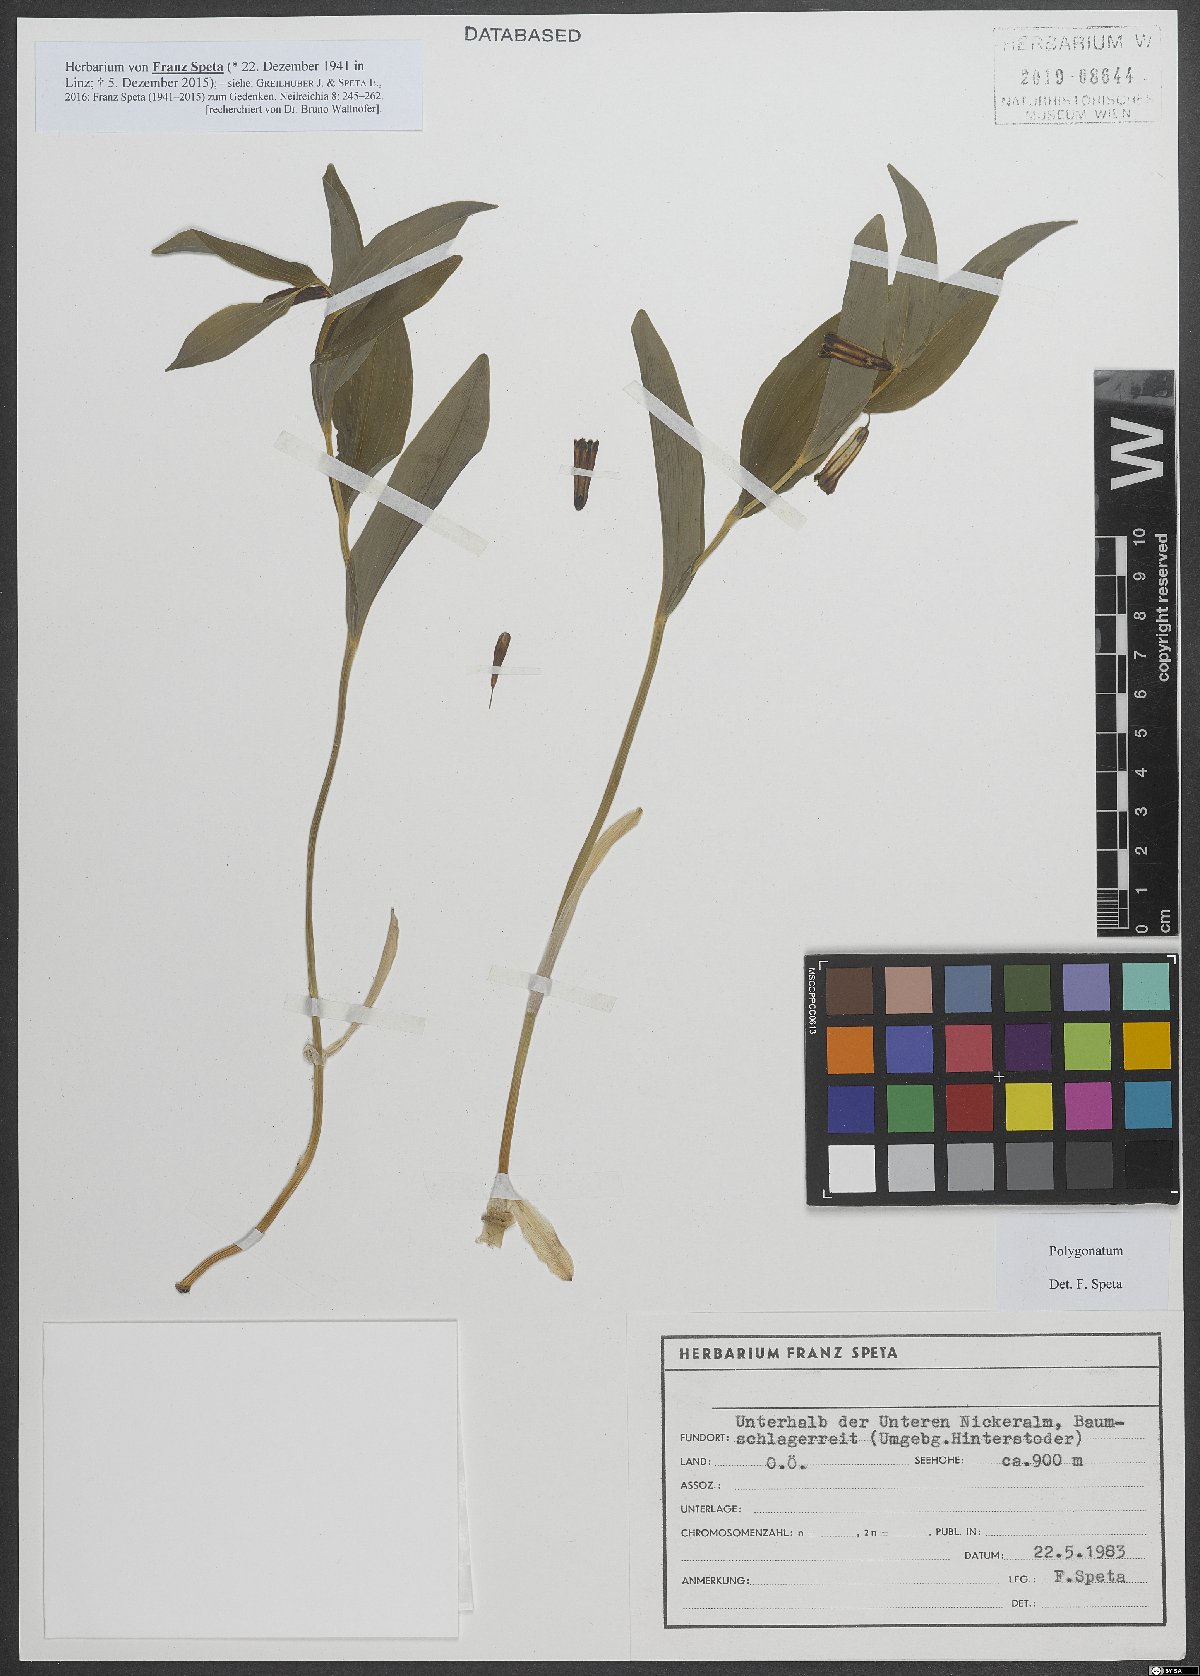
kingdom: Plantae
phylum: Tracheophyta
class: Liliopsida
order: Asparagales
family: Asparagaceae
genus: Polygonatum
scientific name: Polygonatum
